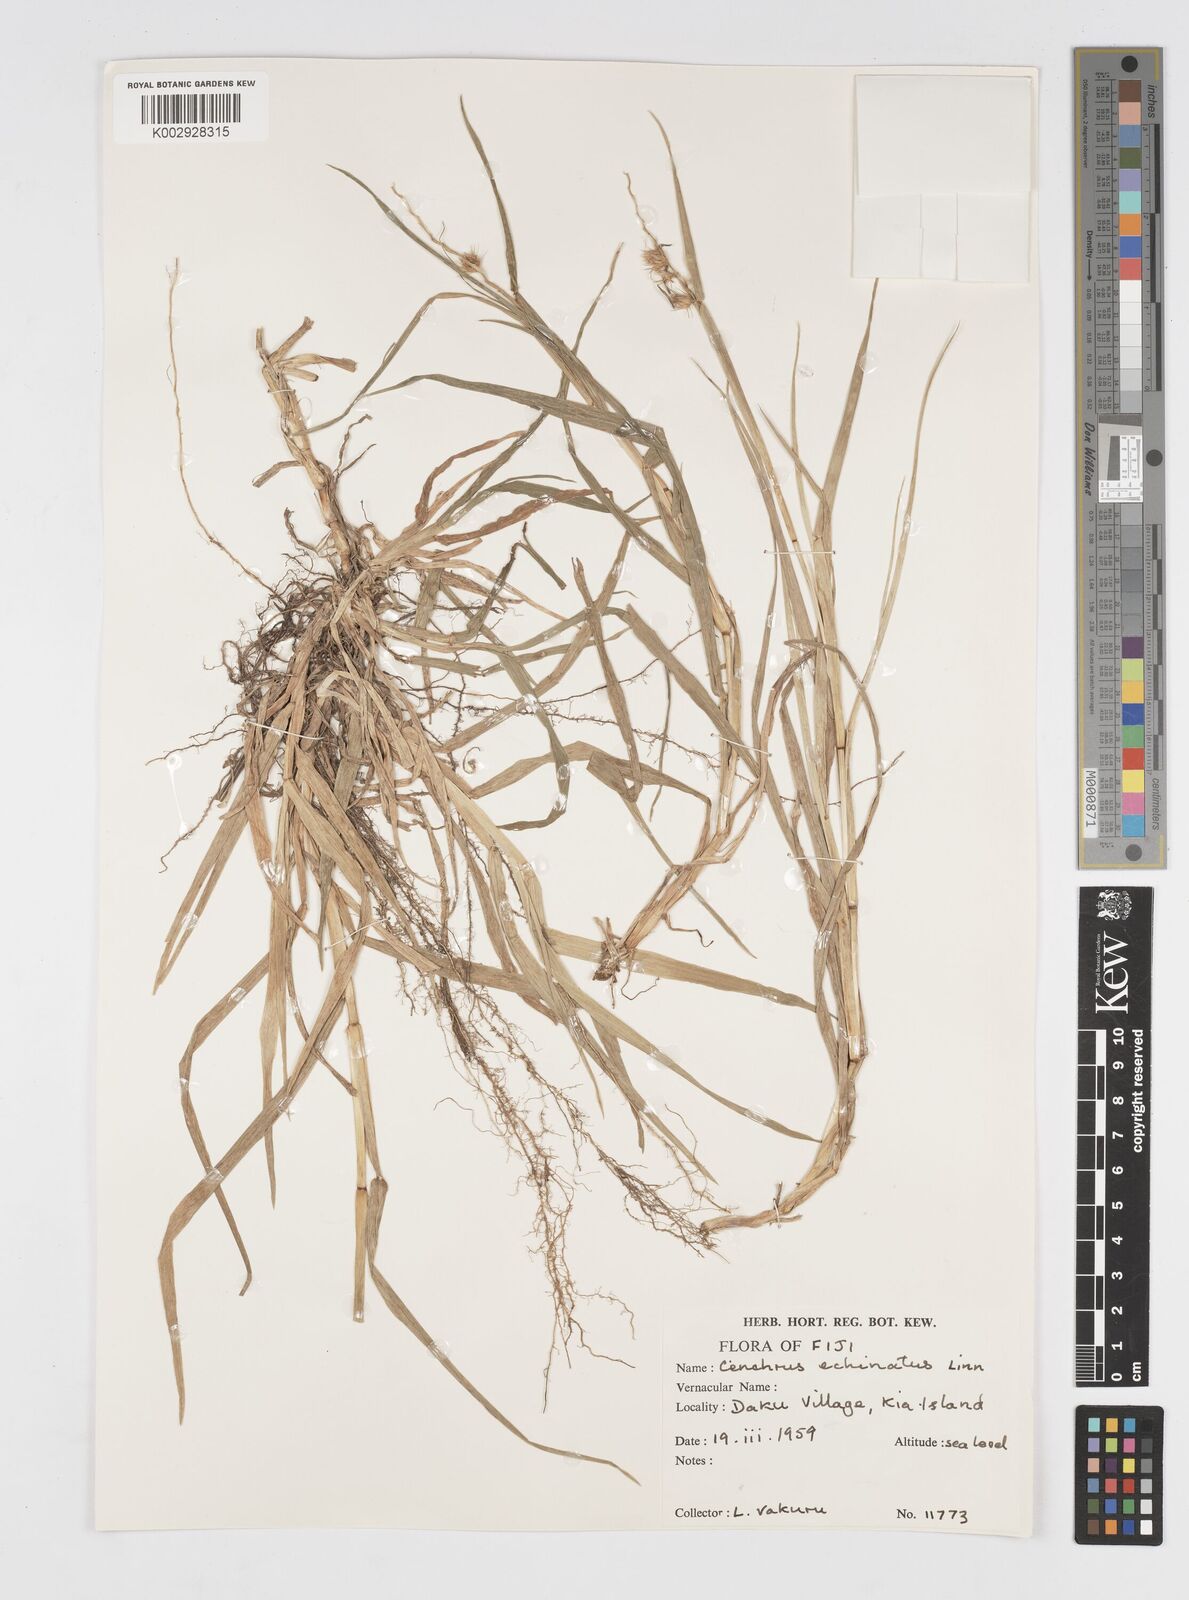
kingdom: Plantae
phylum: Tracheophyta
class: Liliopsida
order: Poales
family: Poaceae
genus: Cenchrus
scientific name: Cenchrus echinatus
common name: Southern sandbur
